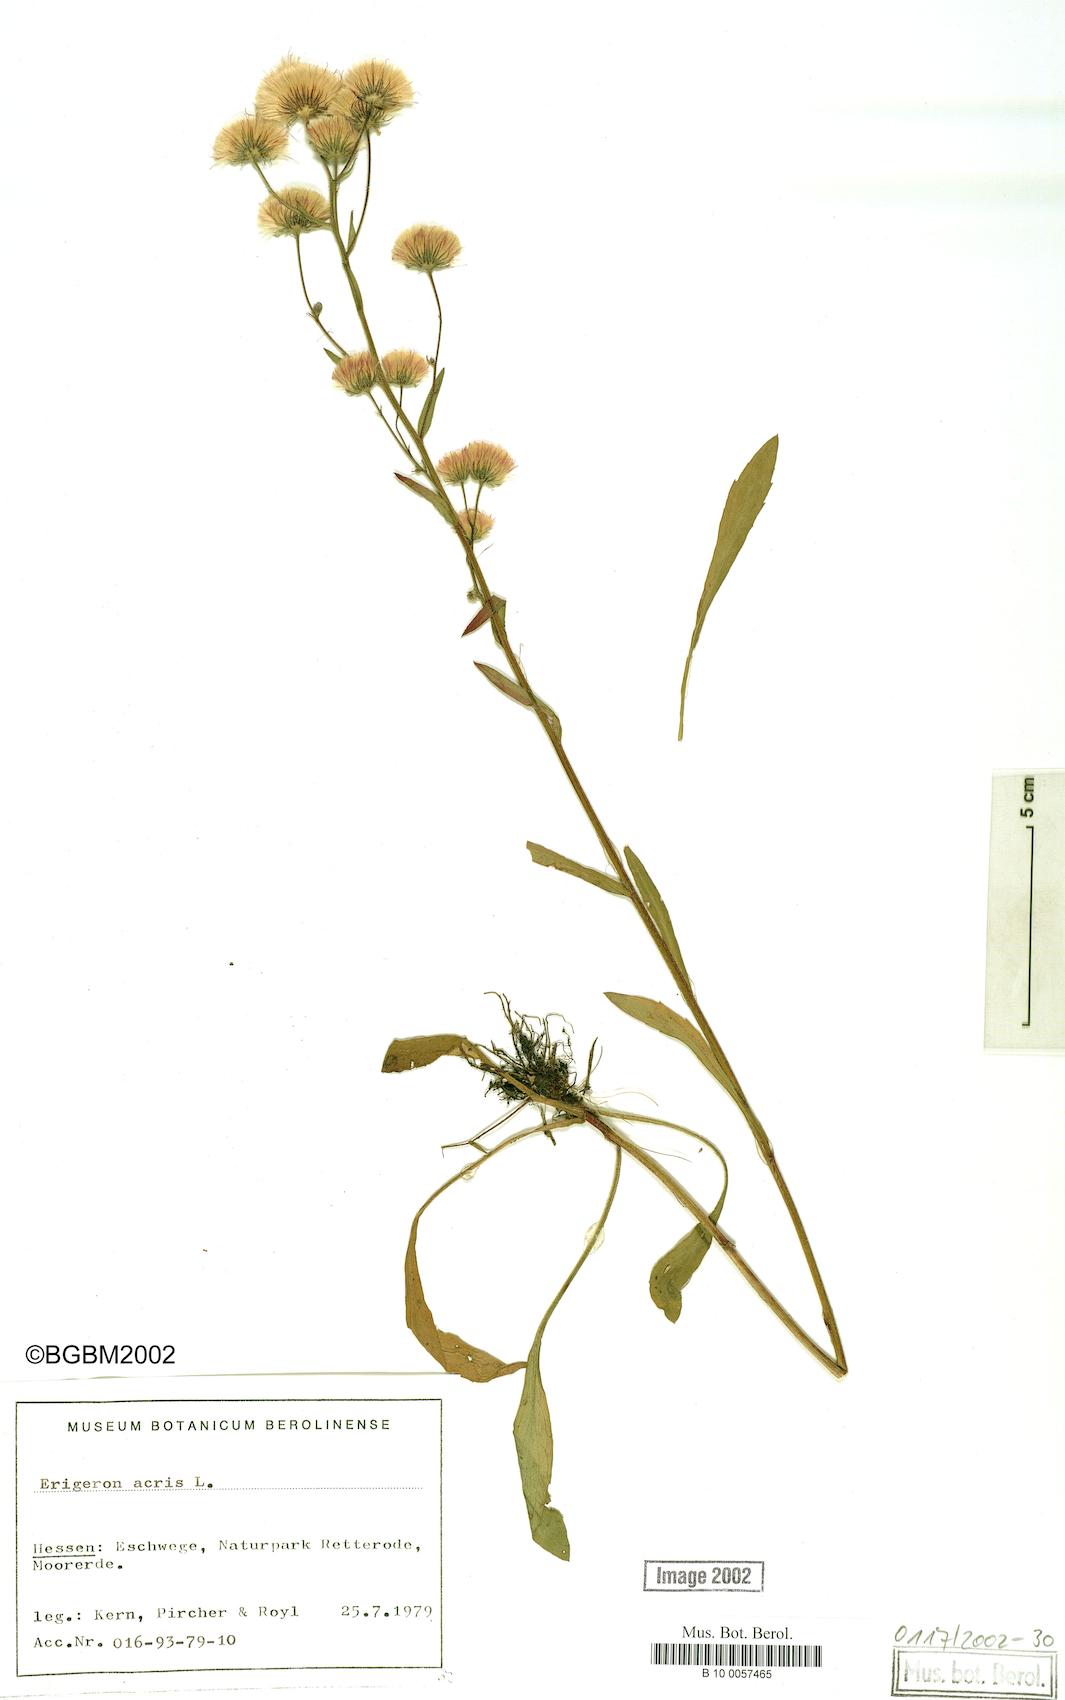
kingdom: Plantae
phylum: Tracheophyta
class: Magnoliopsida
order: Asterales
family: Asteraceae
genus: Erigeron
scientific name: Erigeron acris
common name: Blue fleabane
